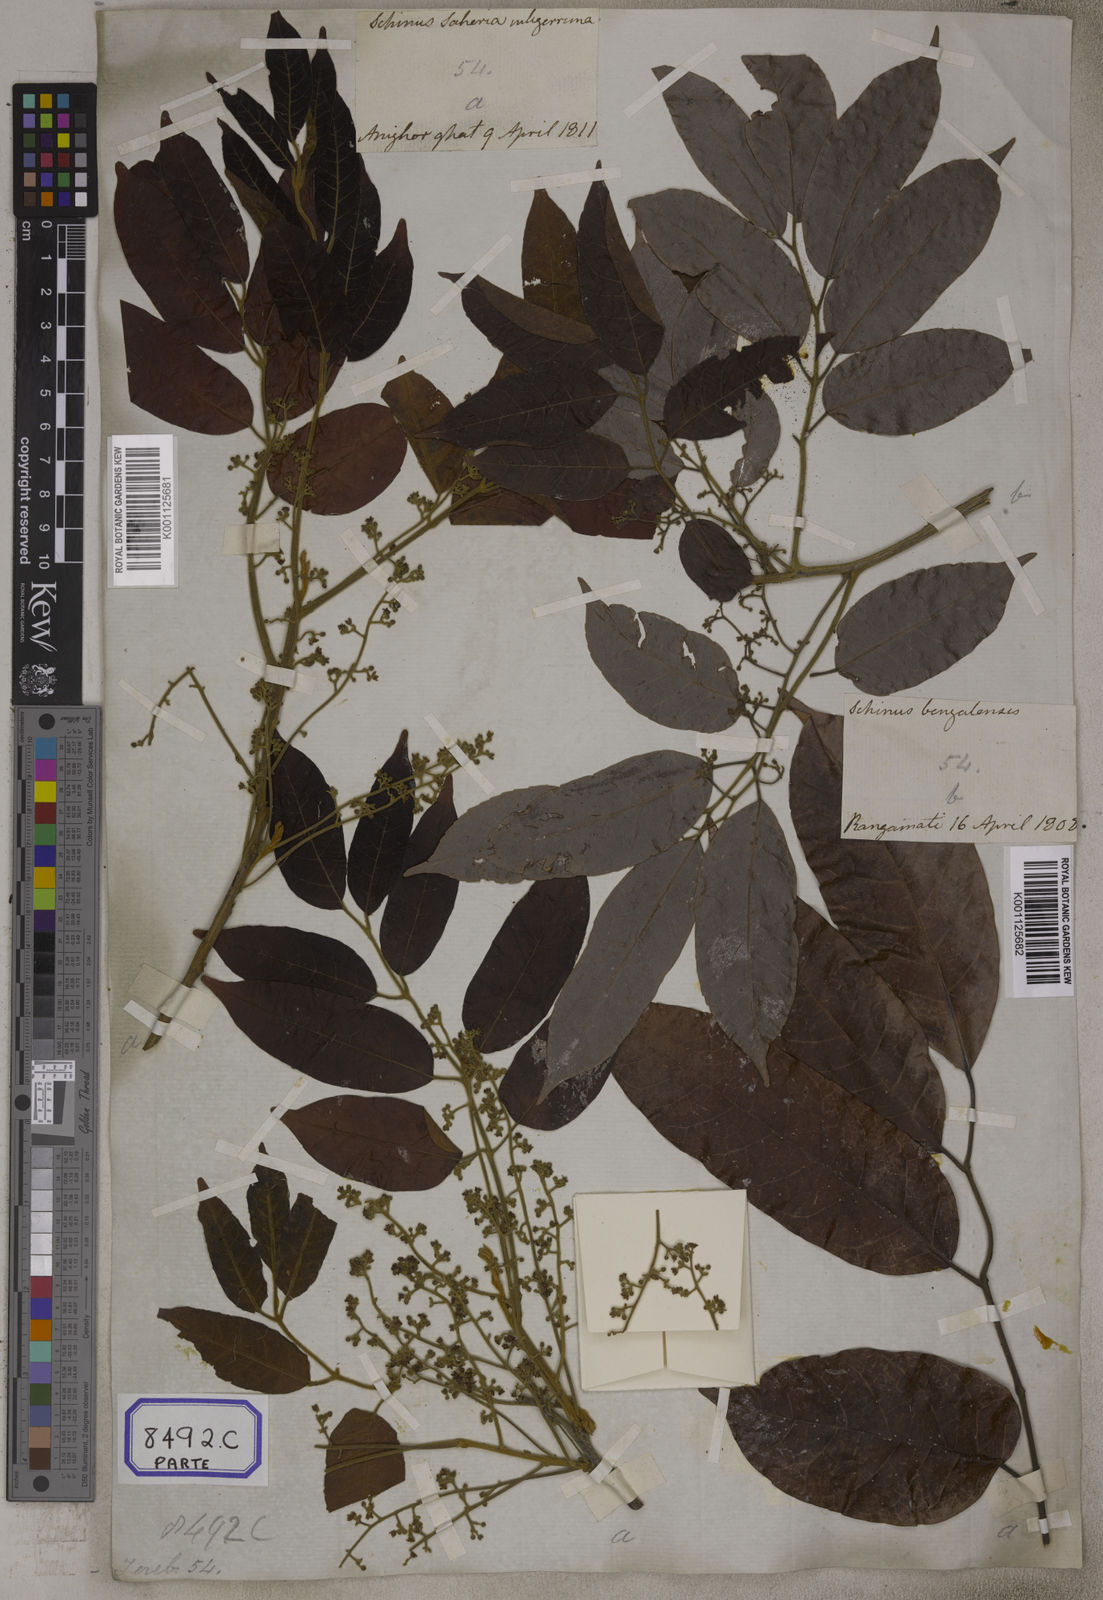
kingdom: Plantae
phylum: Tracheophyta
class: Magnoliopsida
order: Sapindales
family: Burseraceae
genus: Protium
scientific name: Protium serratum
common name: Murtenga
